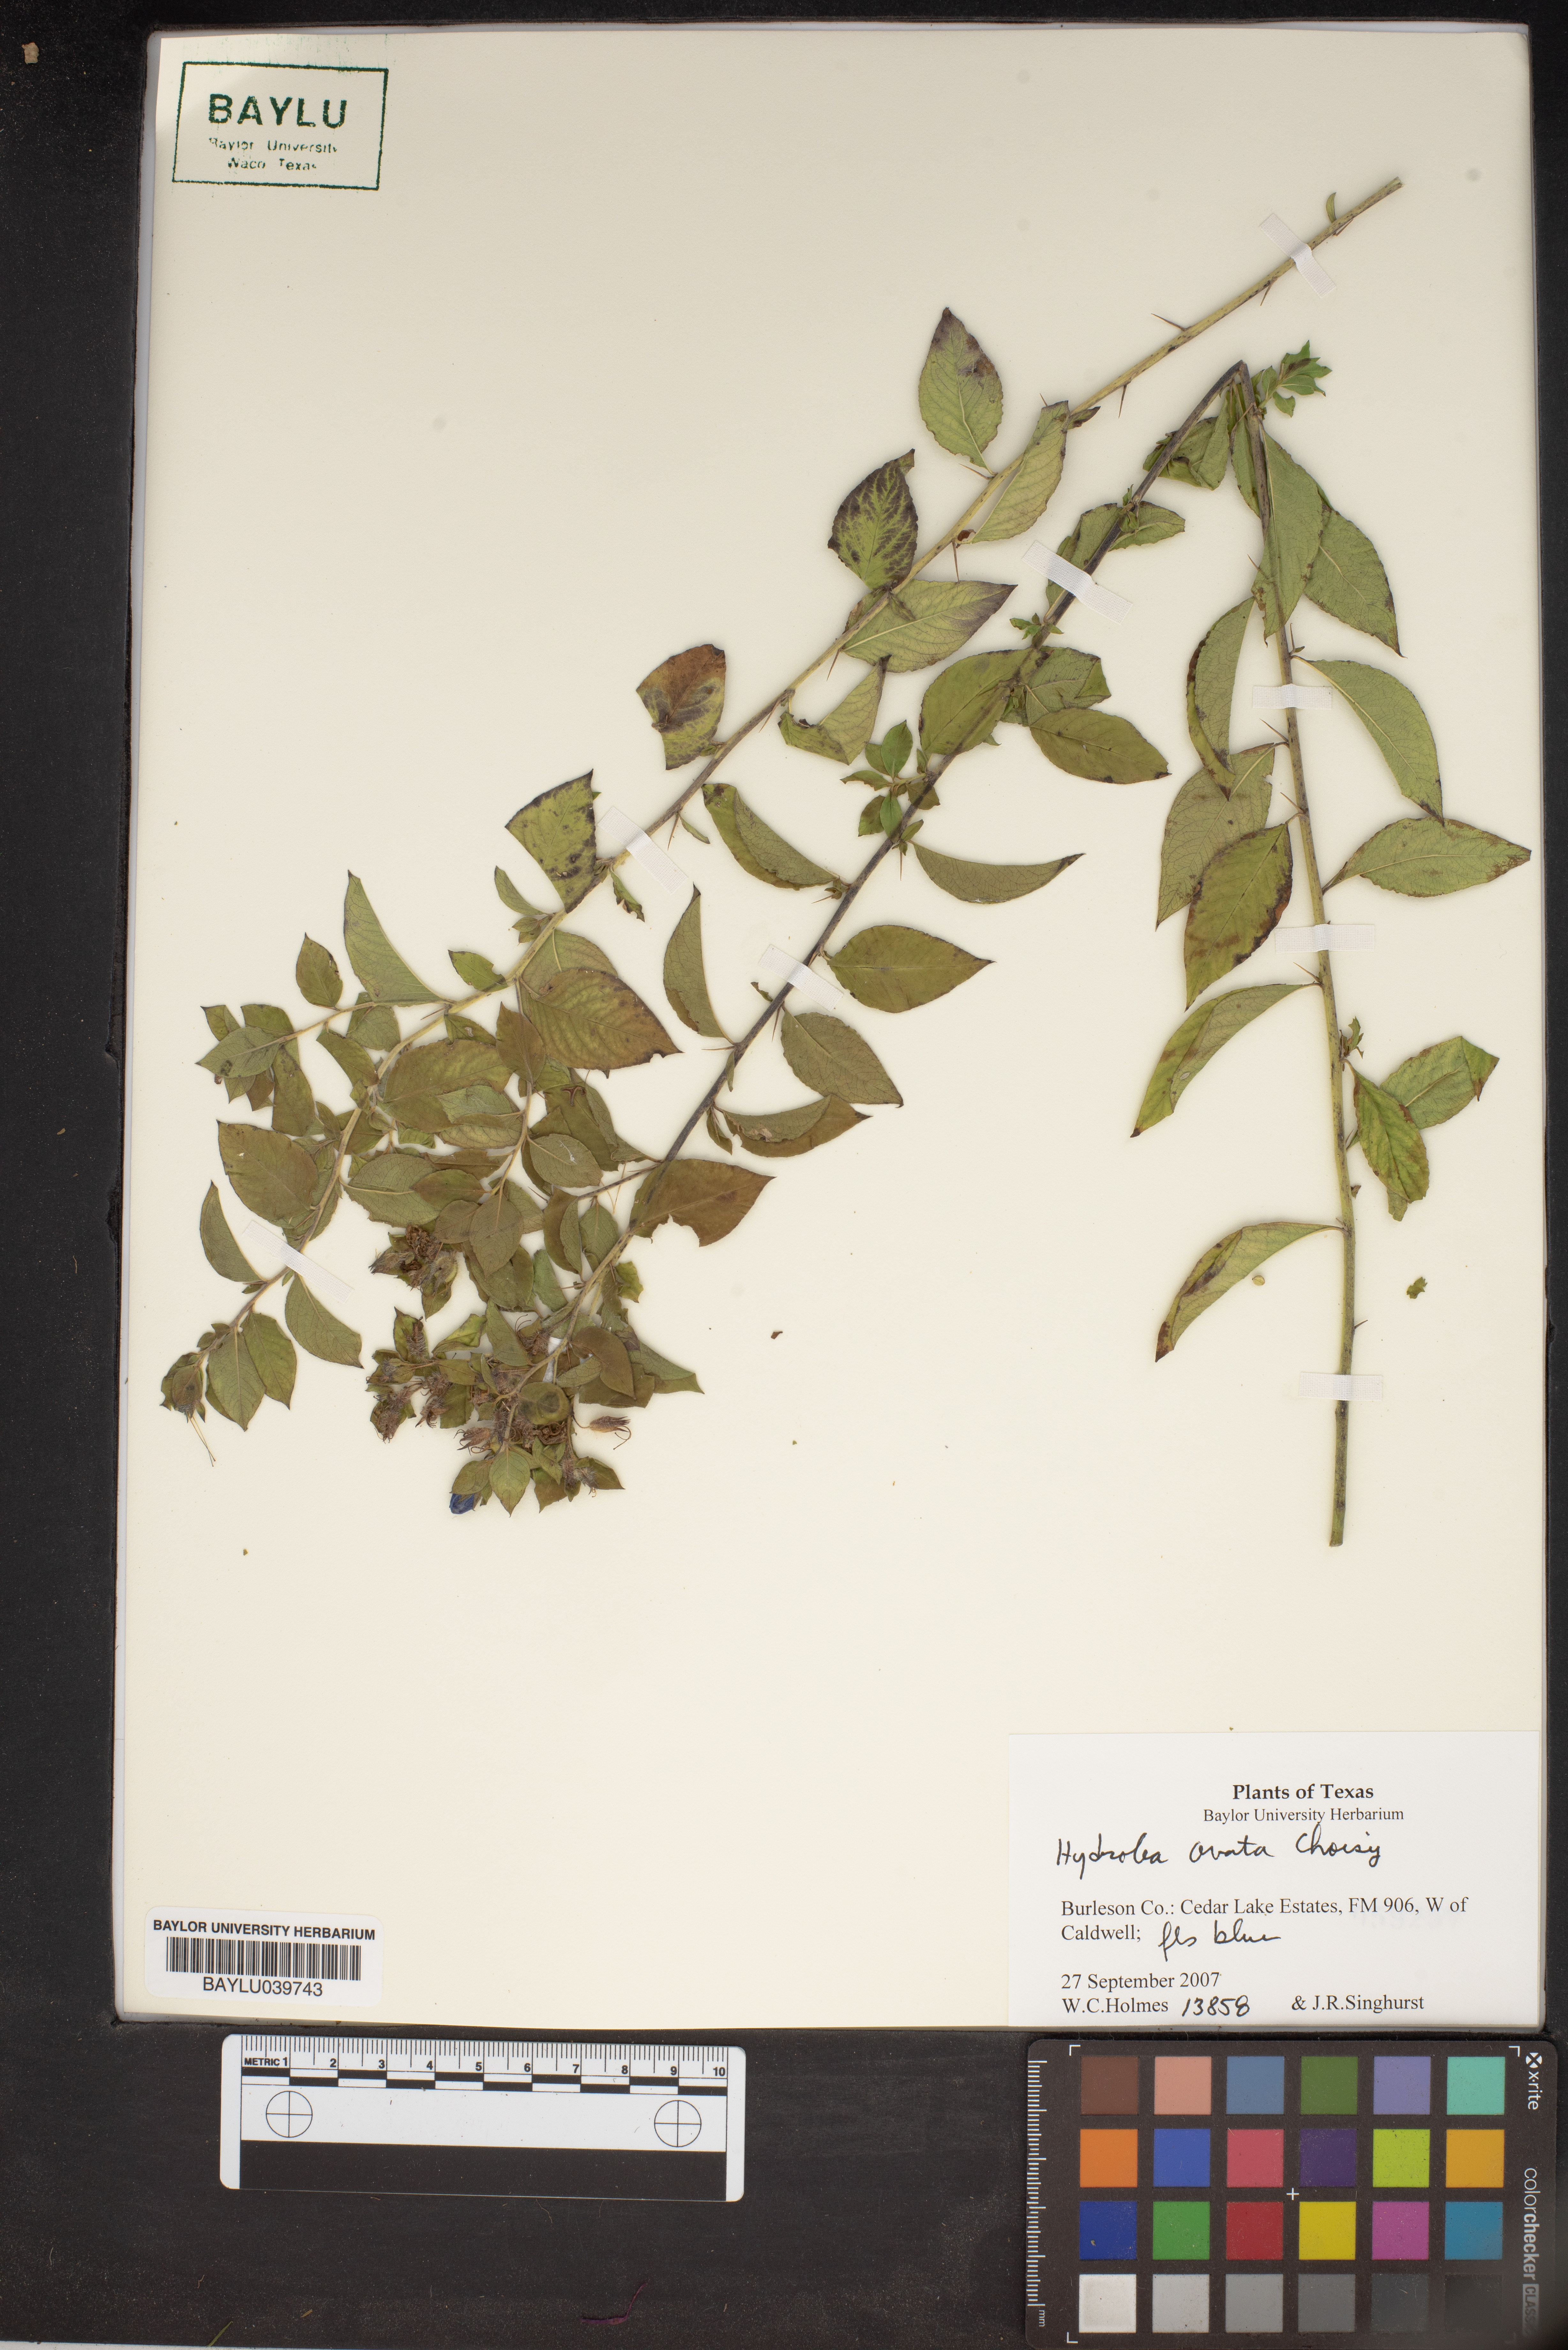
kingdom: Plantae
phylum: Tracheophyta
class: Magnoliopsida
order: Solanales
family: Hydroleaceae
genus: Hydrolea
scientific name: Hydrolea ovata
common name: Ovate false fiddleleaf
